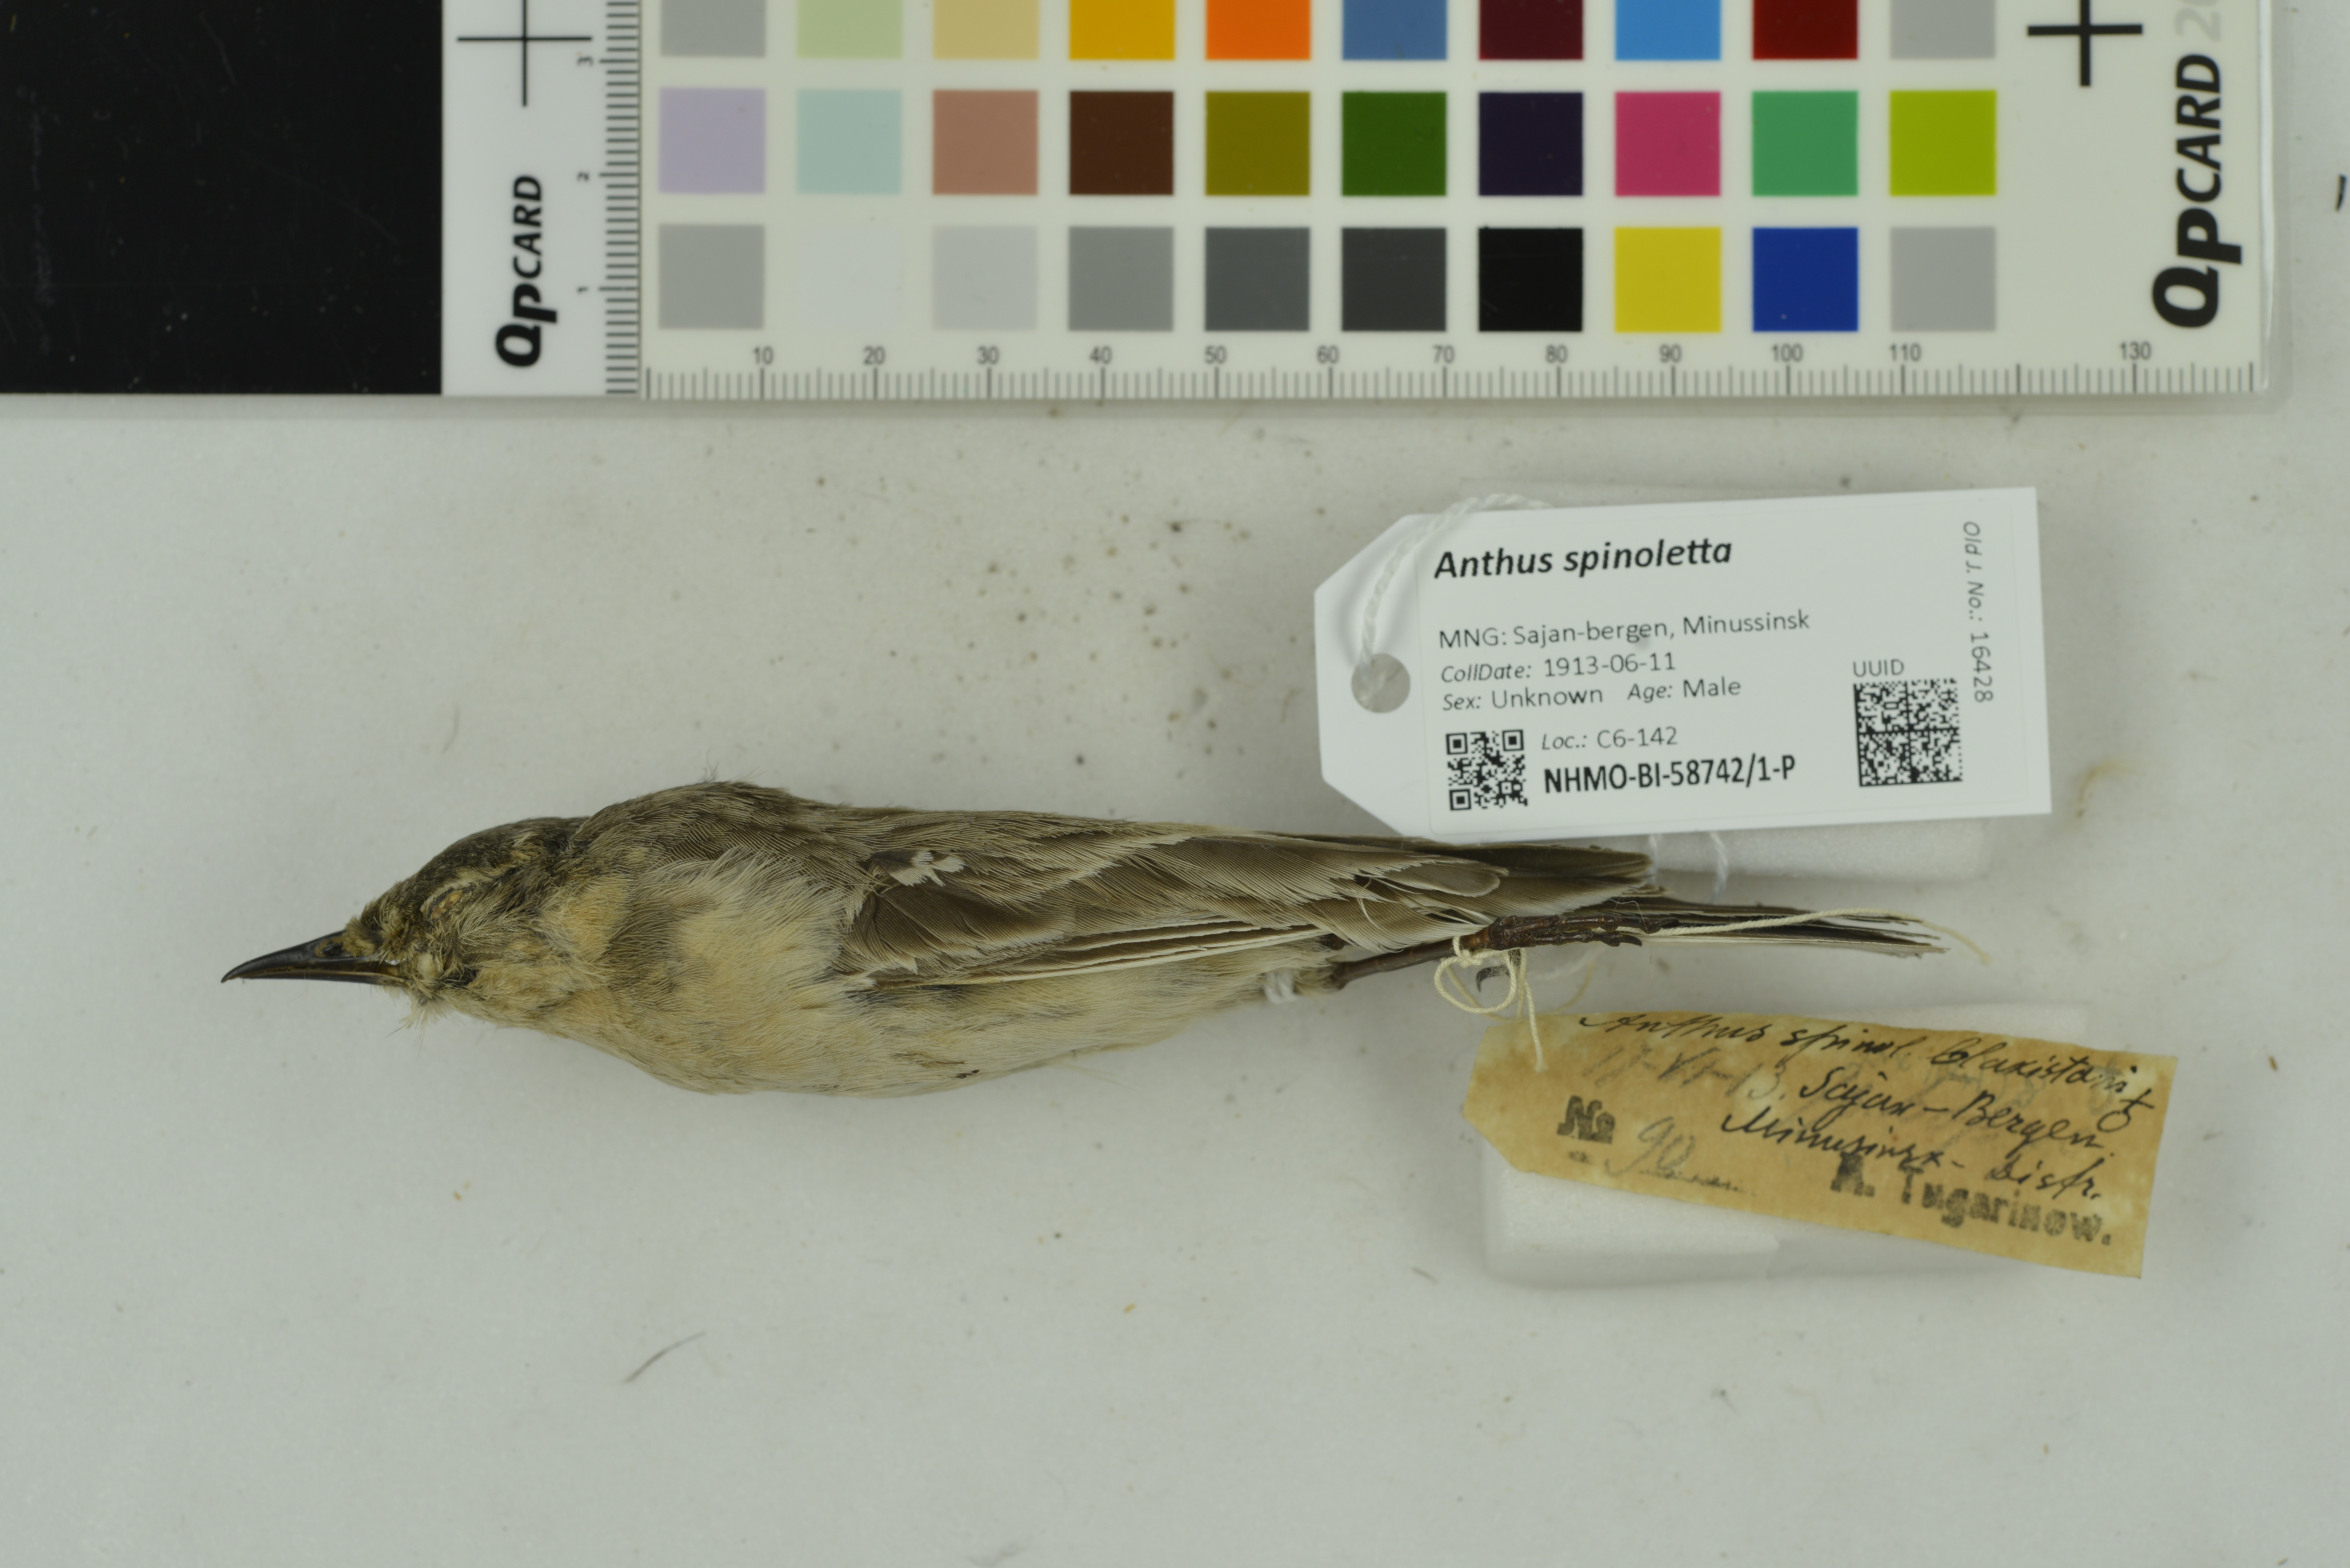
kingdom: Animalia
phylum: Chordata
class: Aves
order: Passeriformes
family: Motacillidae
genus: Anthus
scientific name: Anthus spinoletta
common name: Water pipit
